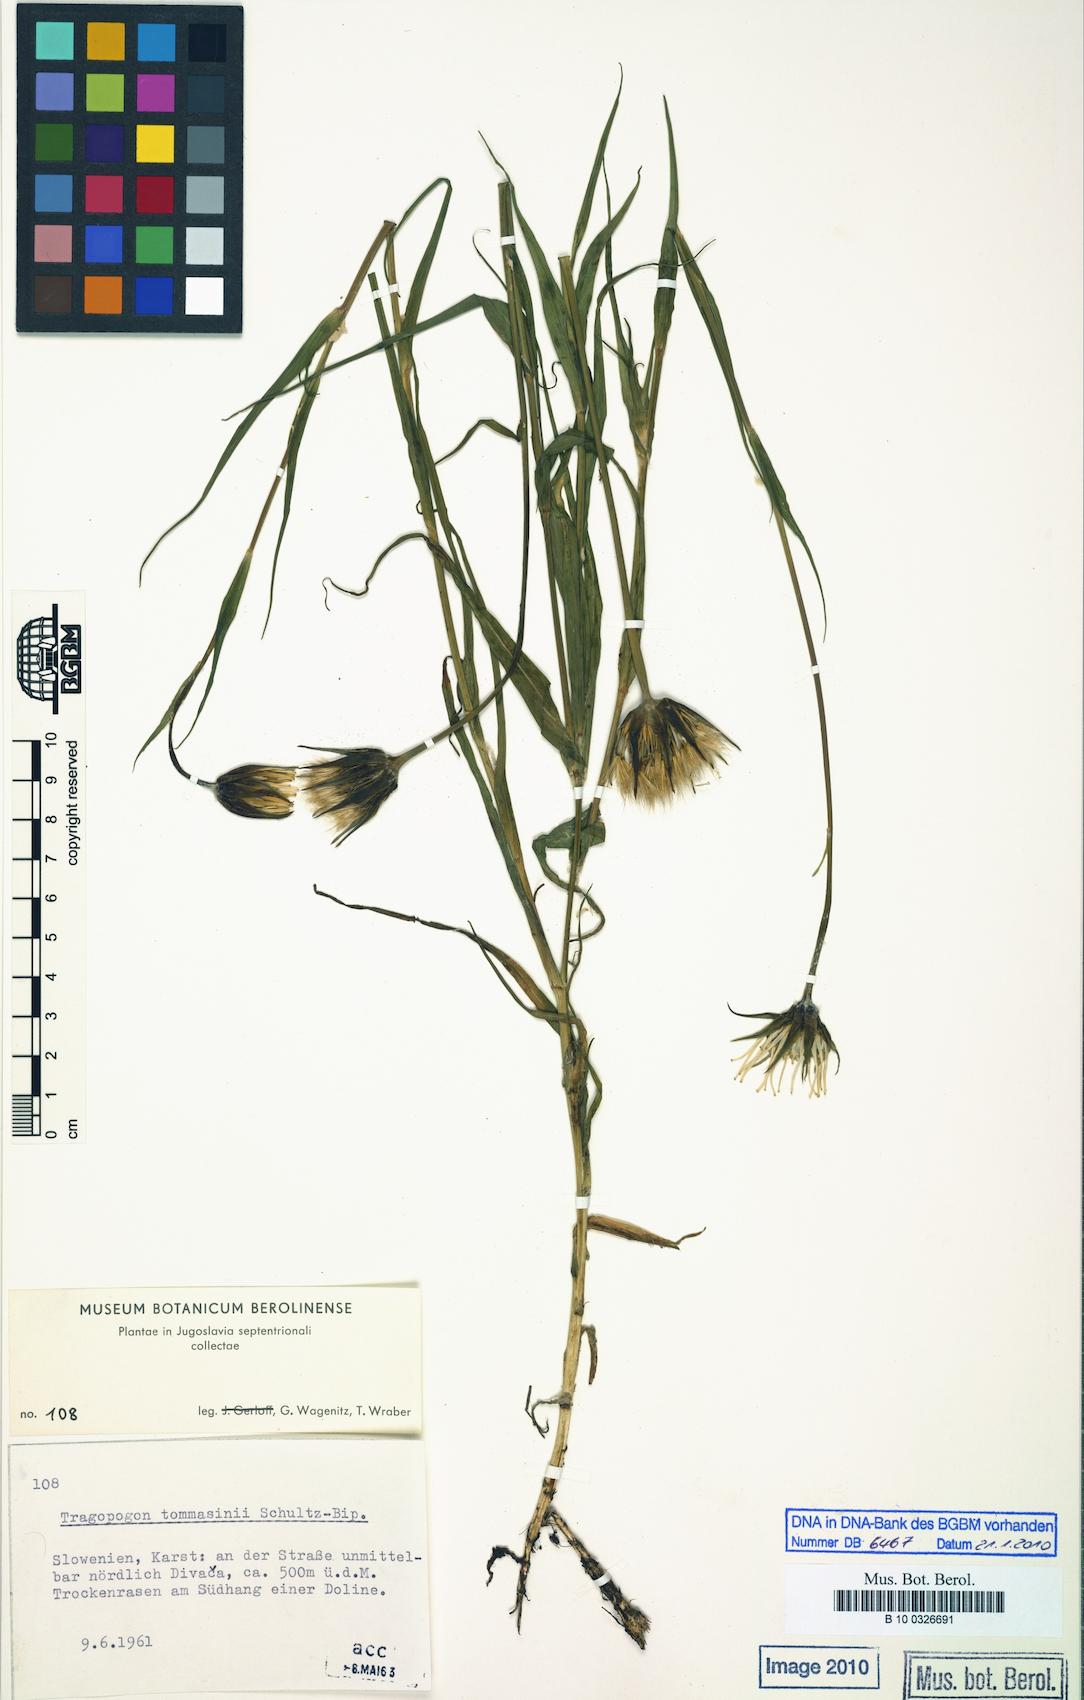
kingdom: Plantae
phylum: Tracheophyta
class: Magnoliopsida
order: Asterales
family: Asteraceae
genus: Tragopogon
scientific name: Tragopogon tommasinii
